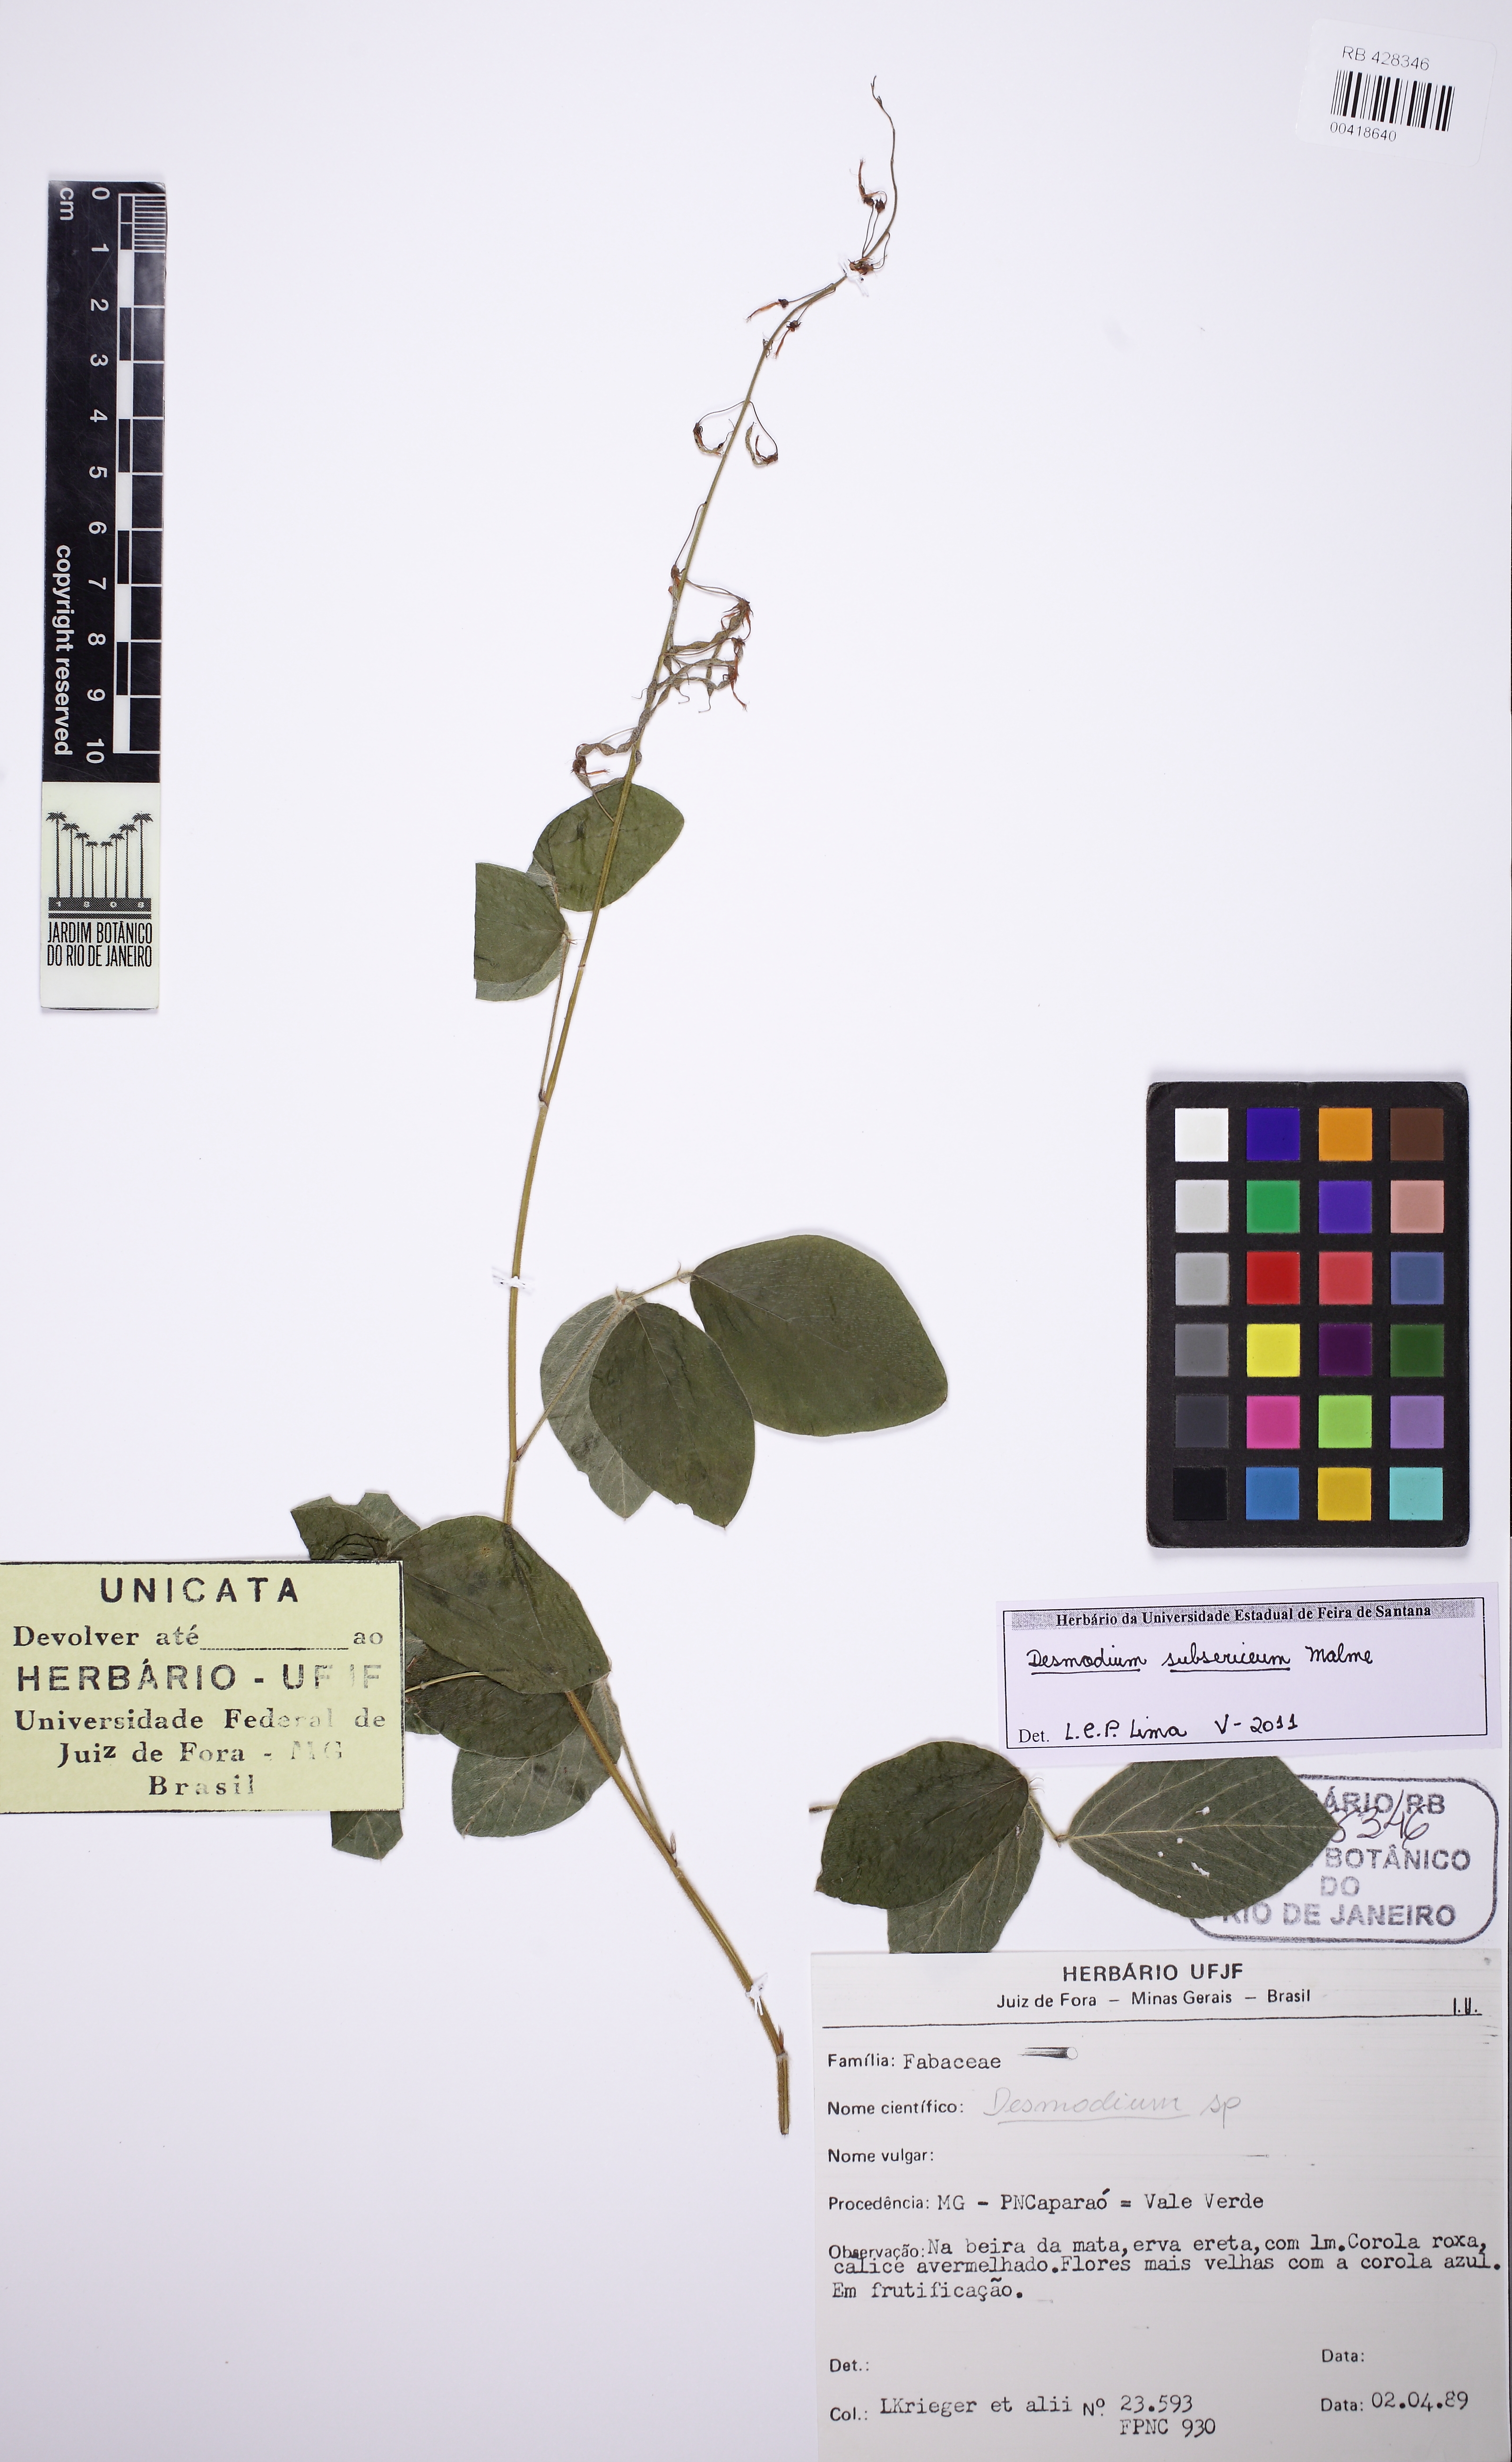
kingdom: Plantae
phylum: Tracheophyta
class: Magnoliopsida
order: Fabales
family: Fabaceae
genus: Desmodium
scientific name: Desmodium subsericeum
